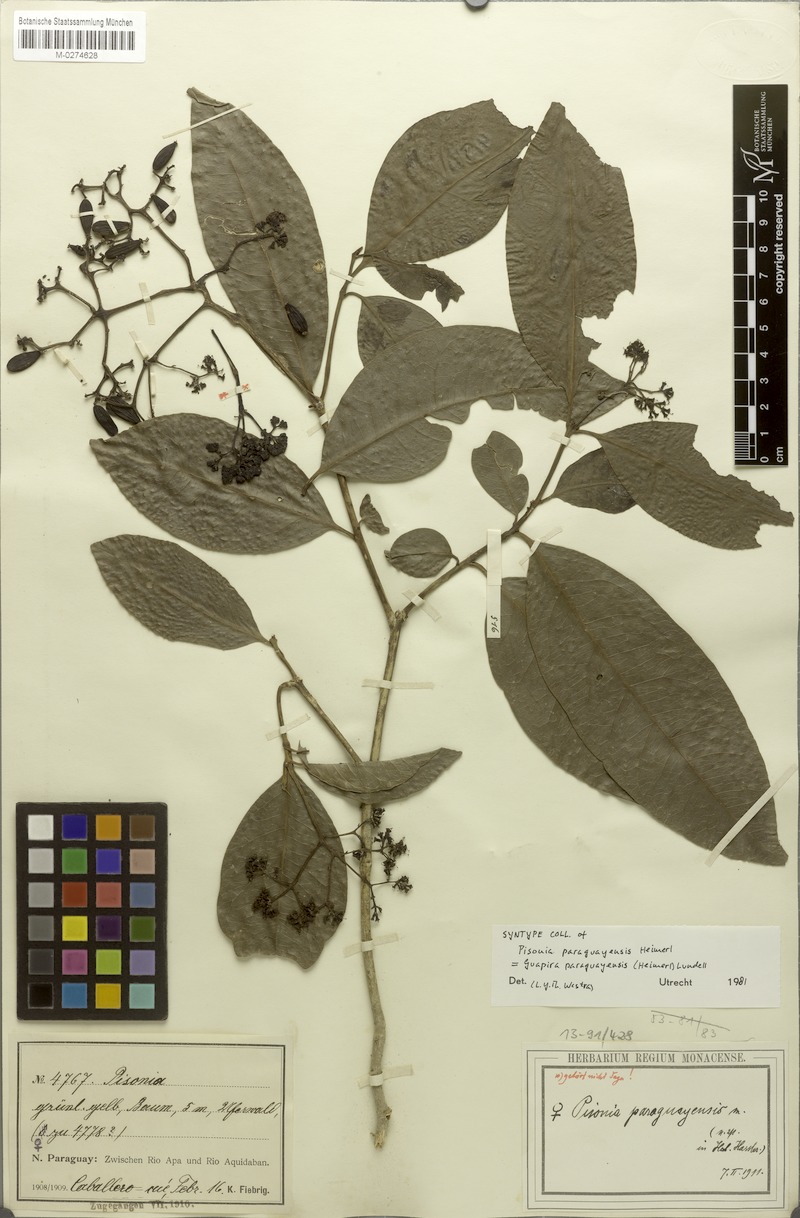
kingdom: Plantae
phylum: Tracheophyta
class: Magnoliopsida
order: Caryophyllales
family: Nyctaginaceae
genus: Guapira
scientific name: Guapira paraguayensis
